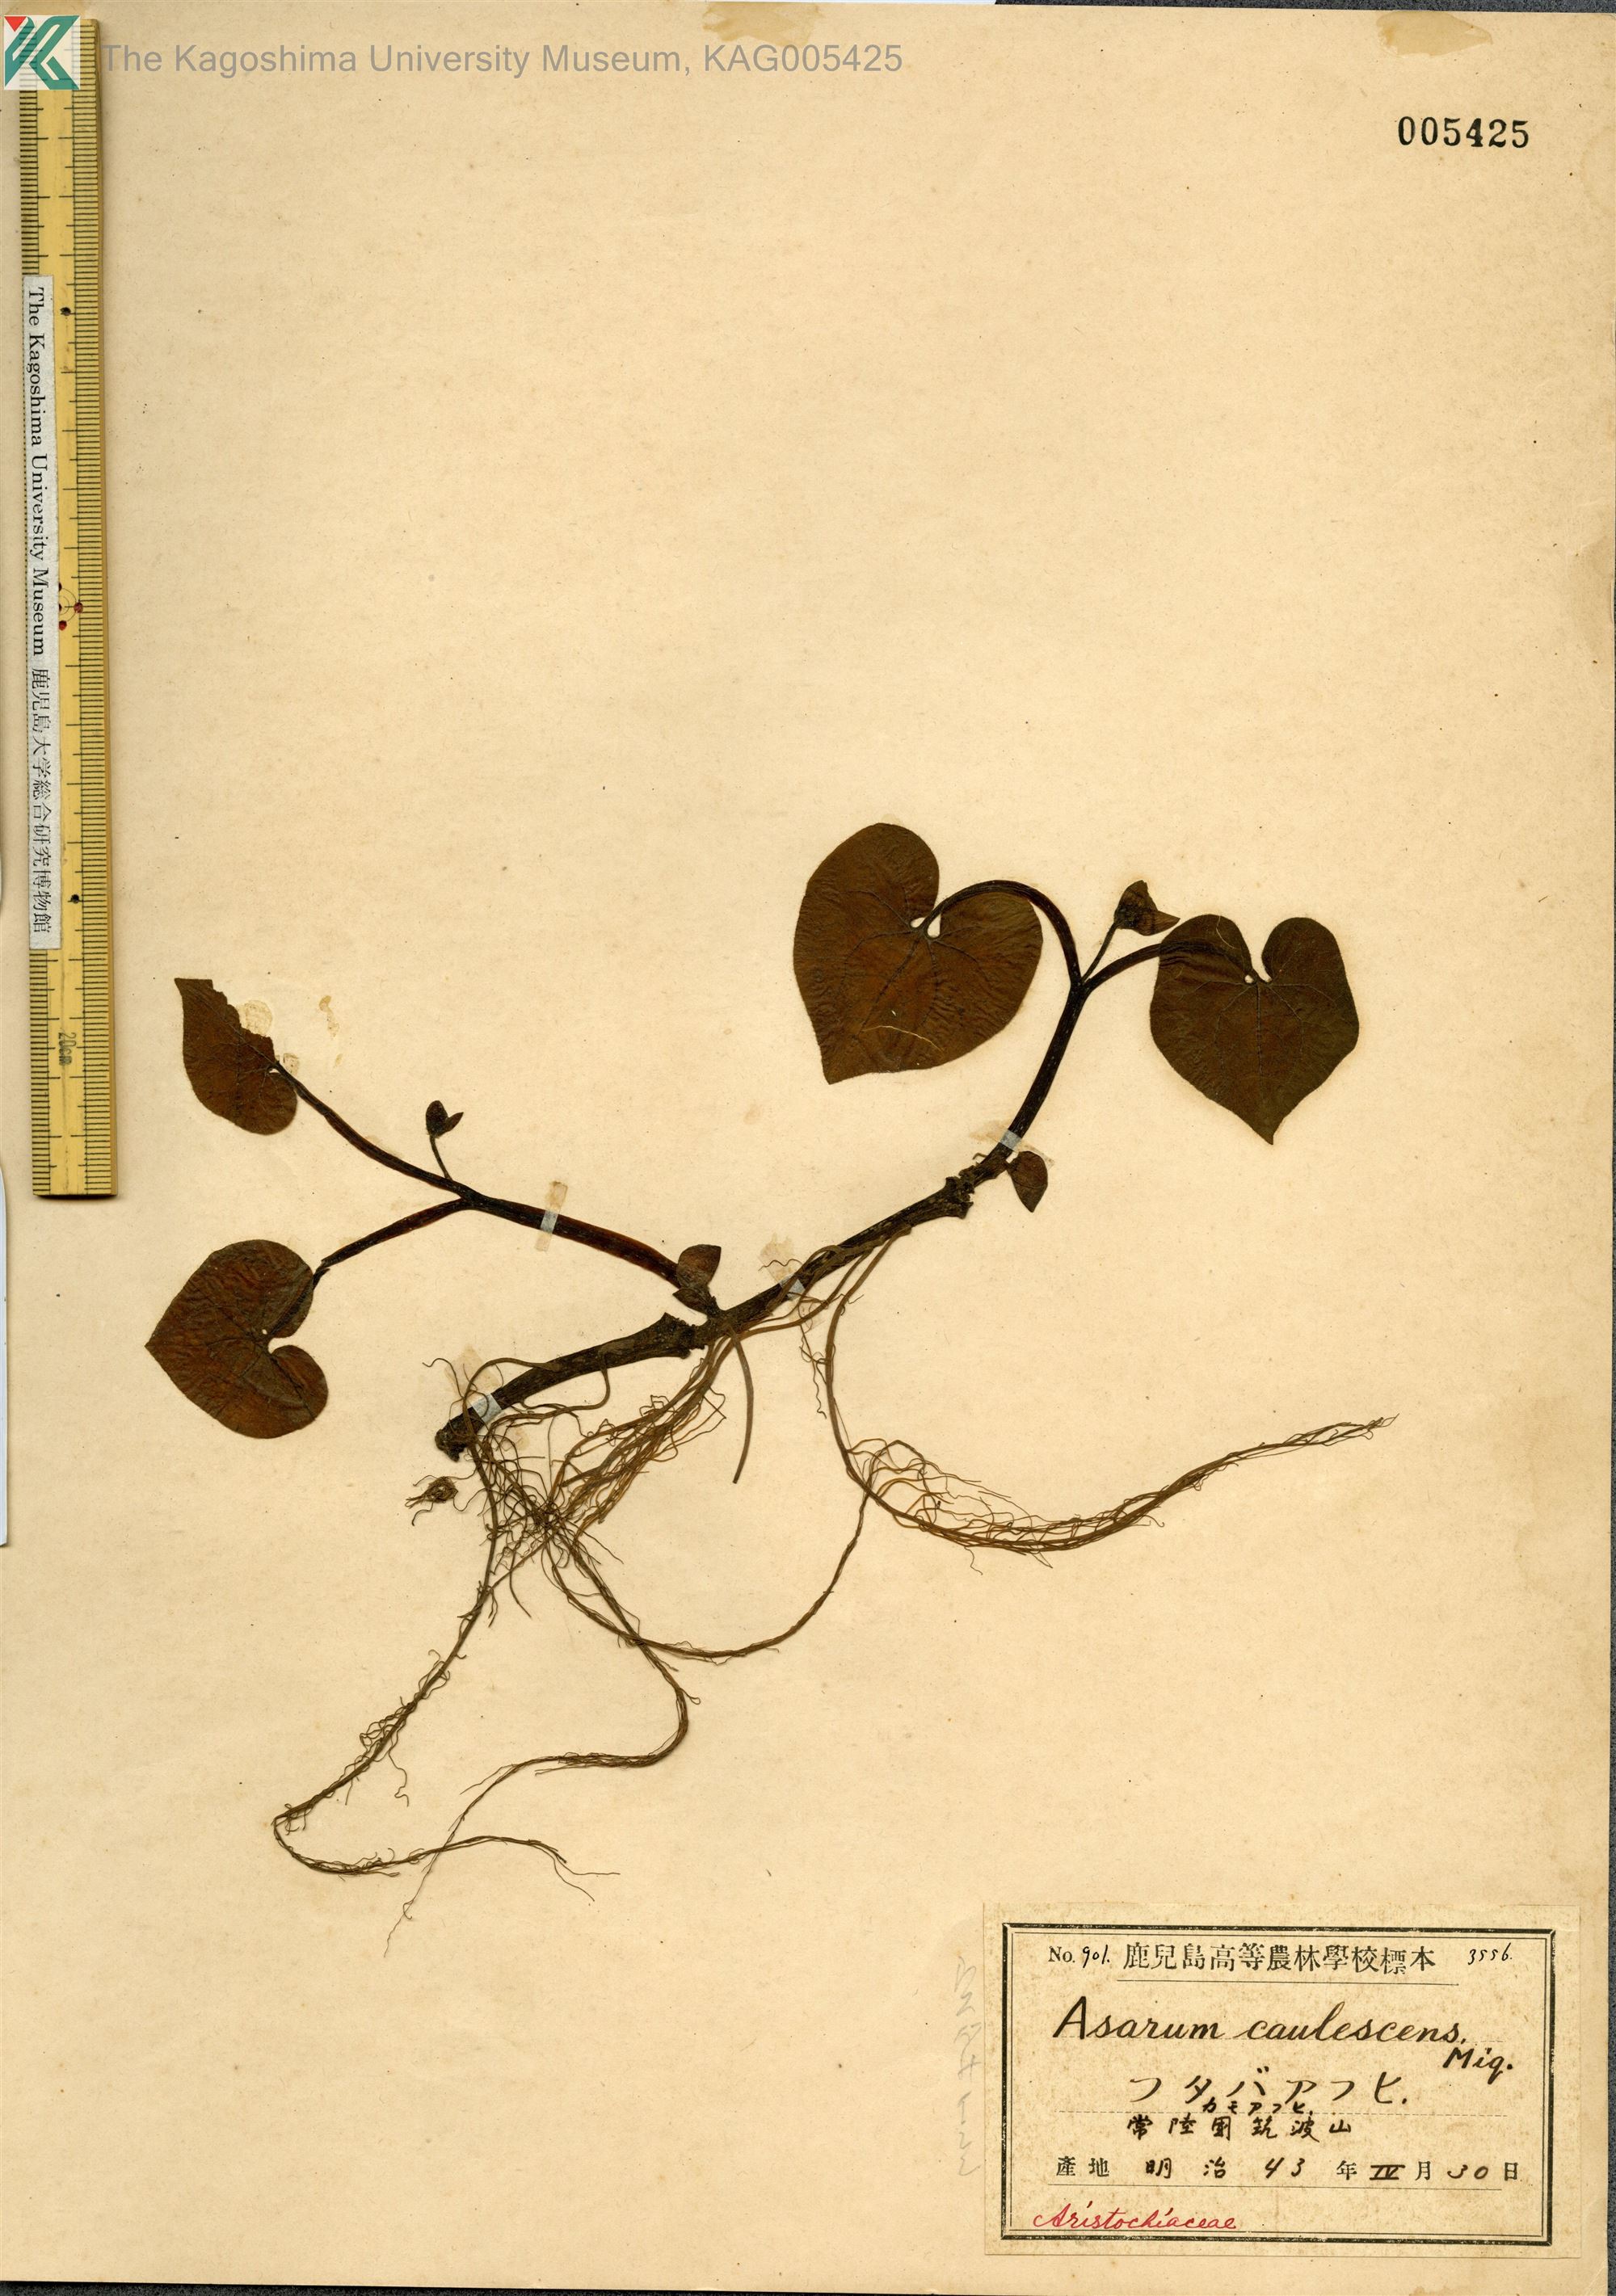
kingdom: Plantae
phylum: Tracheophyta
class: Magnoliopsida
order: Piperales
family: Aristolochiaceae
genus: Asarum
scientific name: Asarum caulescens
